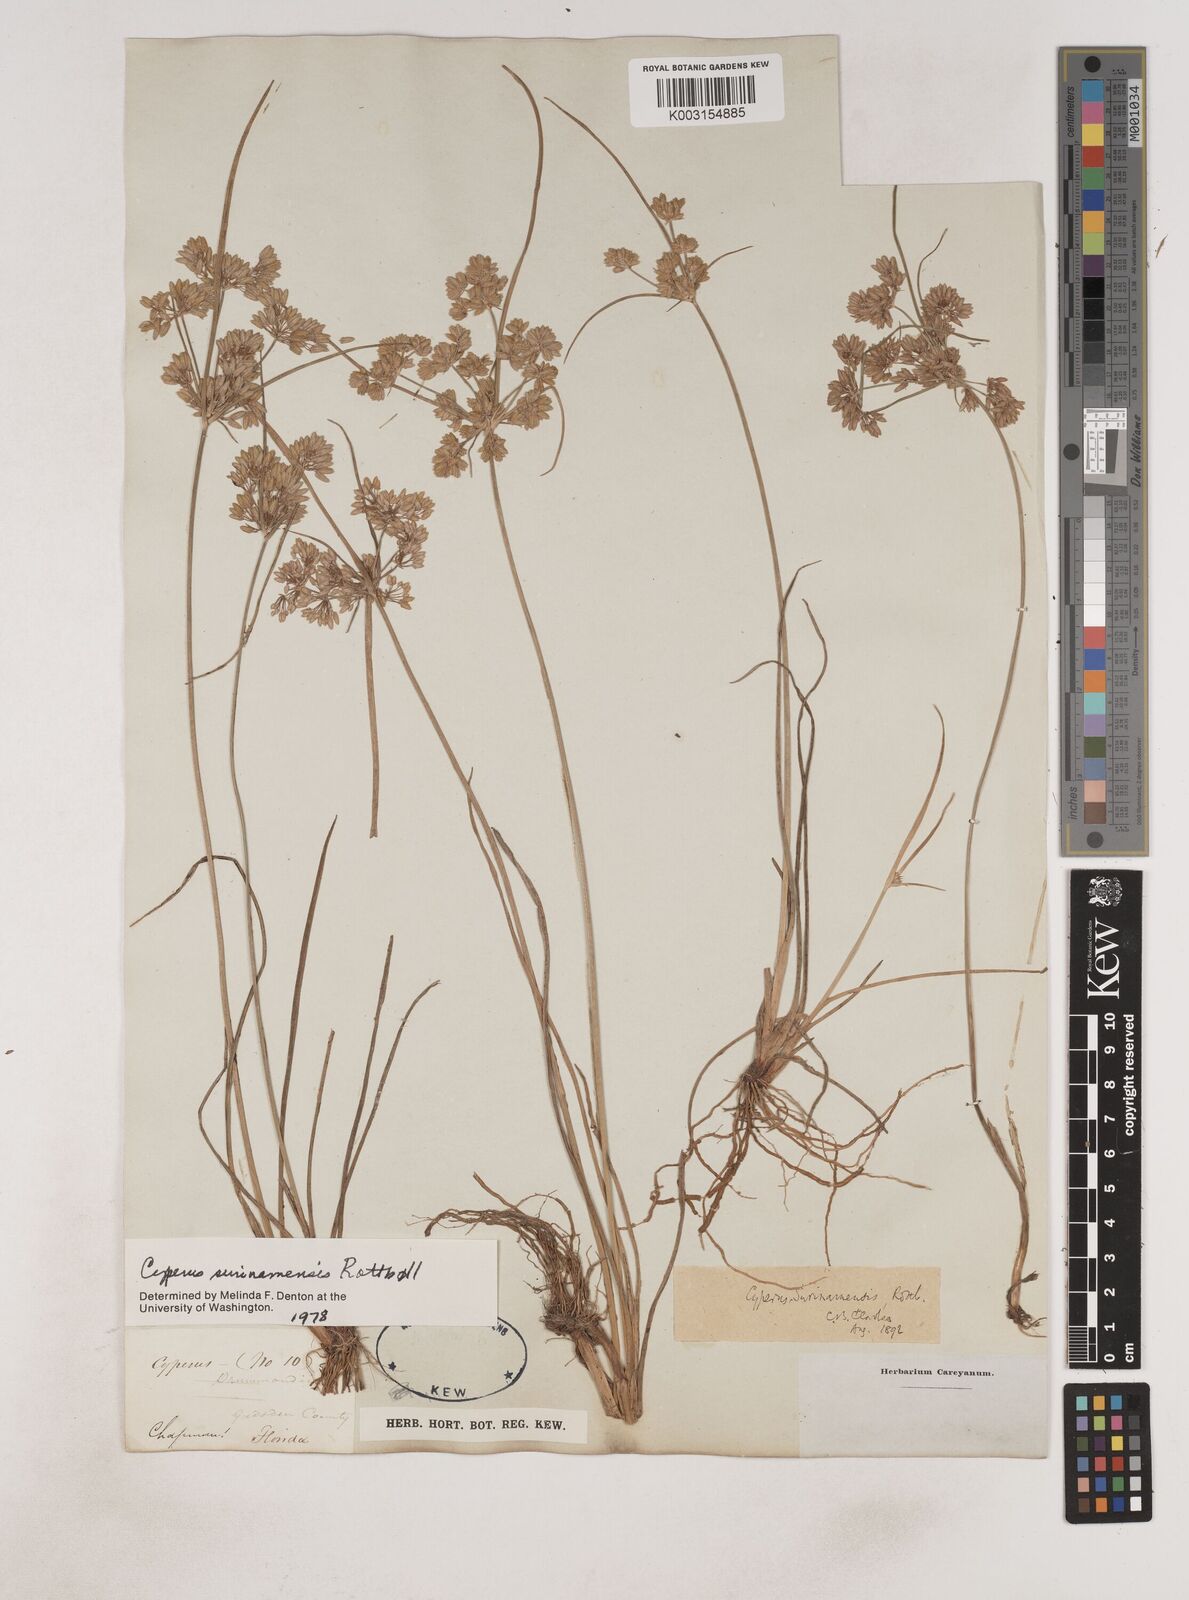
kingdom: Plantae
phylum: Tracheophyta
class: Liliopsida
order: Poales
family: Cyperaceae
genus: Cyperus
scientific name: Cyperus surinamensis
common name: Tropical flat sedge
